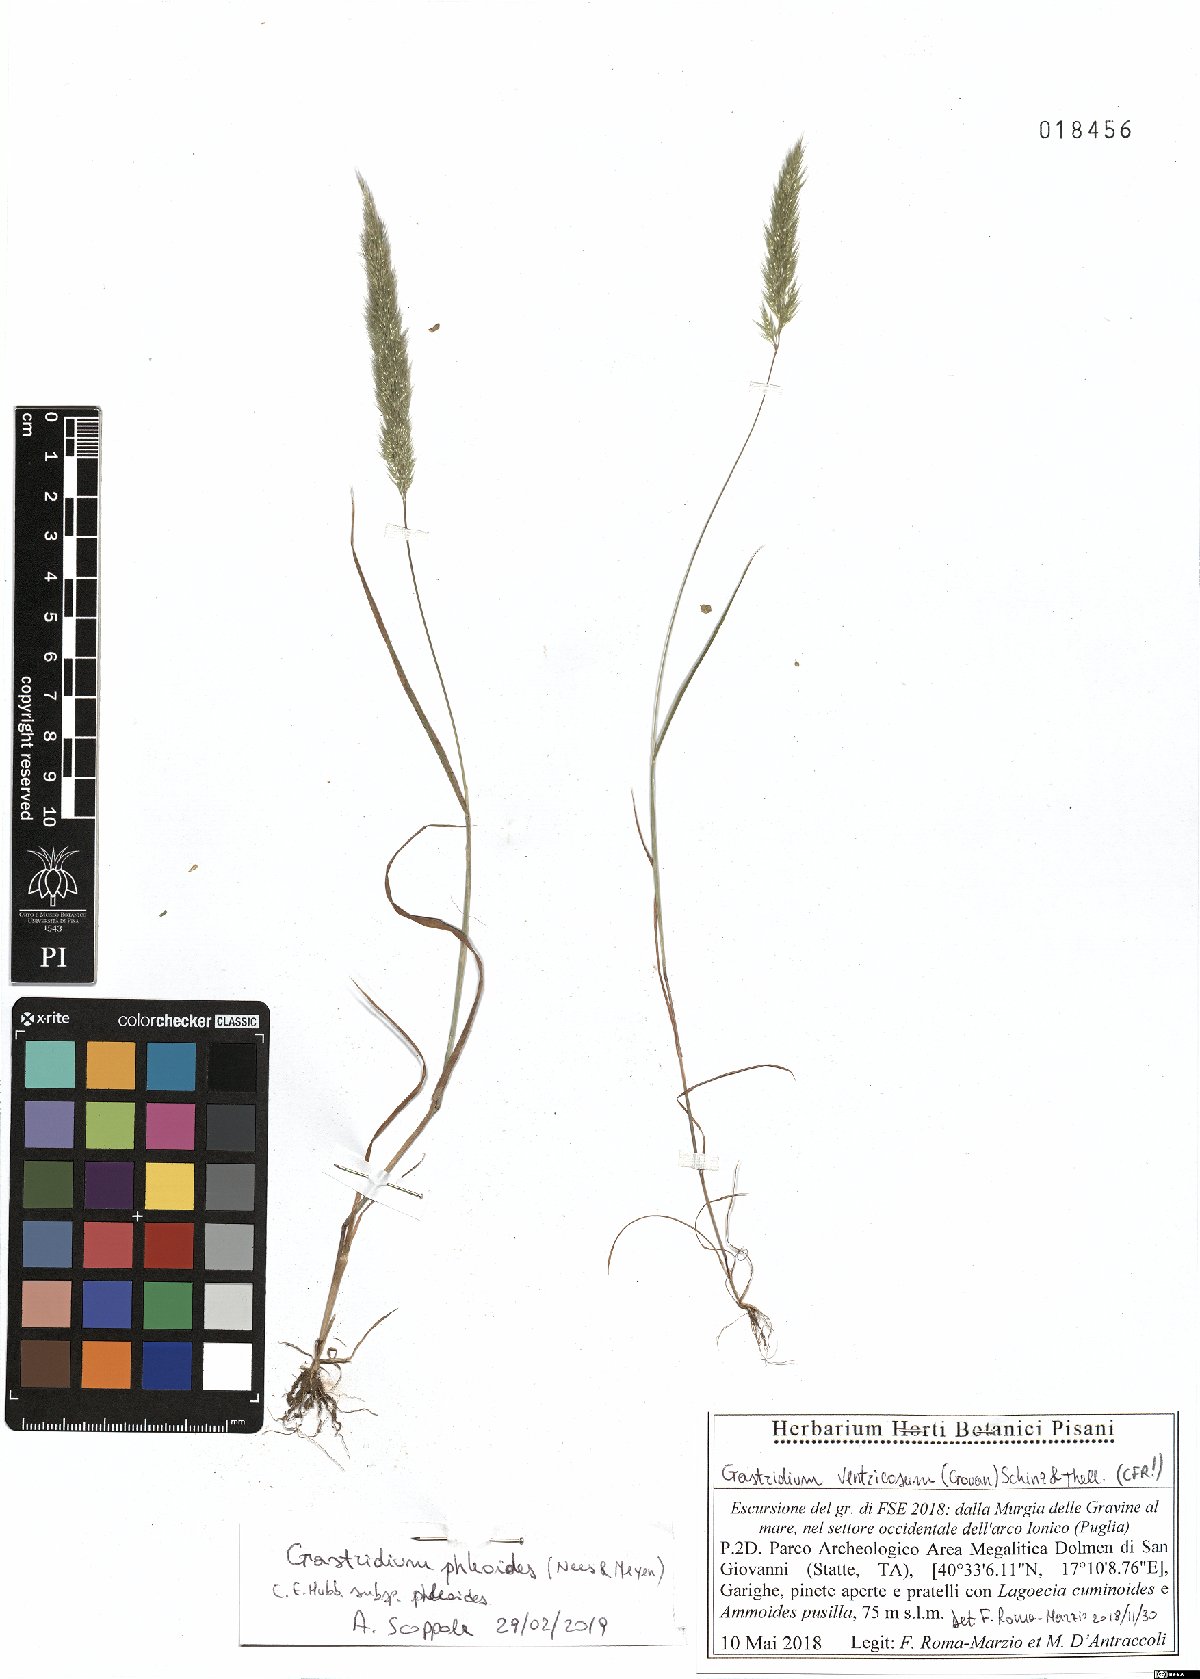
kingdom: Plantae
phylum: Tracheophyta
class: Liliopsida
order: Poales
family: Poaceae
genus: Gastridium
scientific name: Gastridium phleoides
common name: Nit grass
